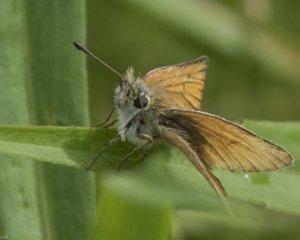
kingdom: Animalia
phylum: Arthropoda
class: Insecta
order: Lepidoptera
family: Hesperiidae
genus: Thymelicus
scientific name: Thymelicus lineola
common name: European Skipper
